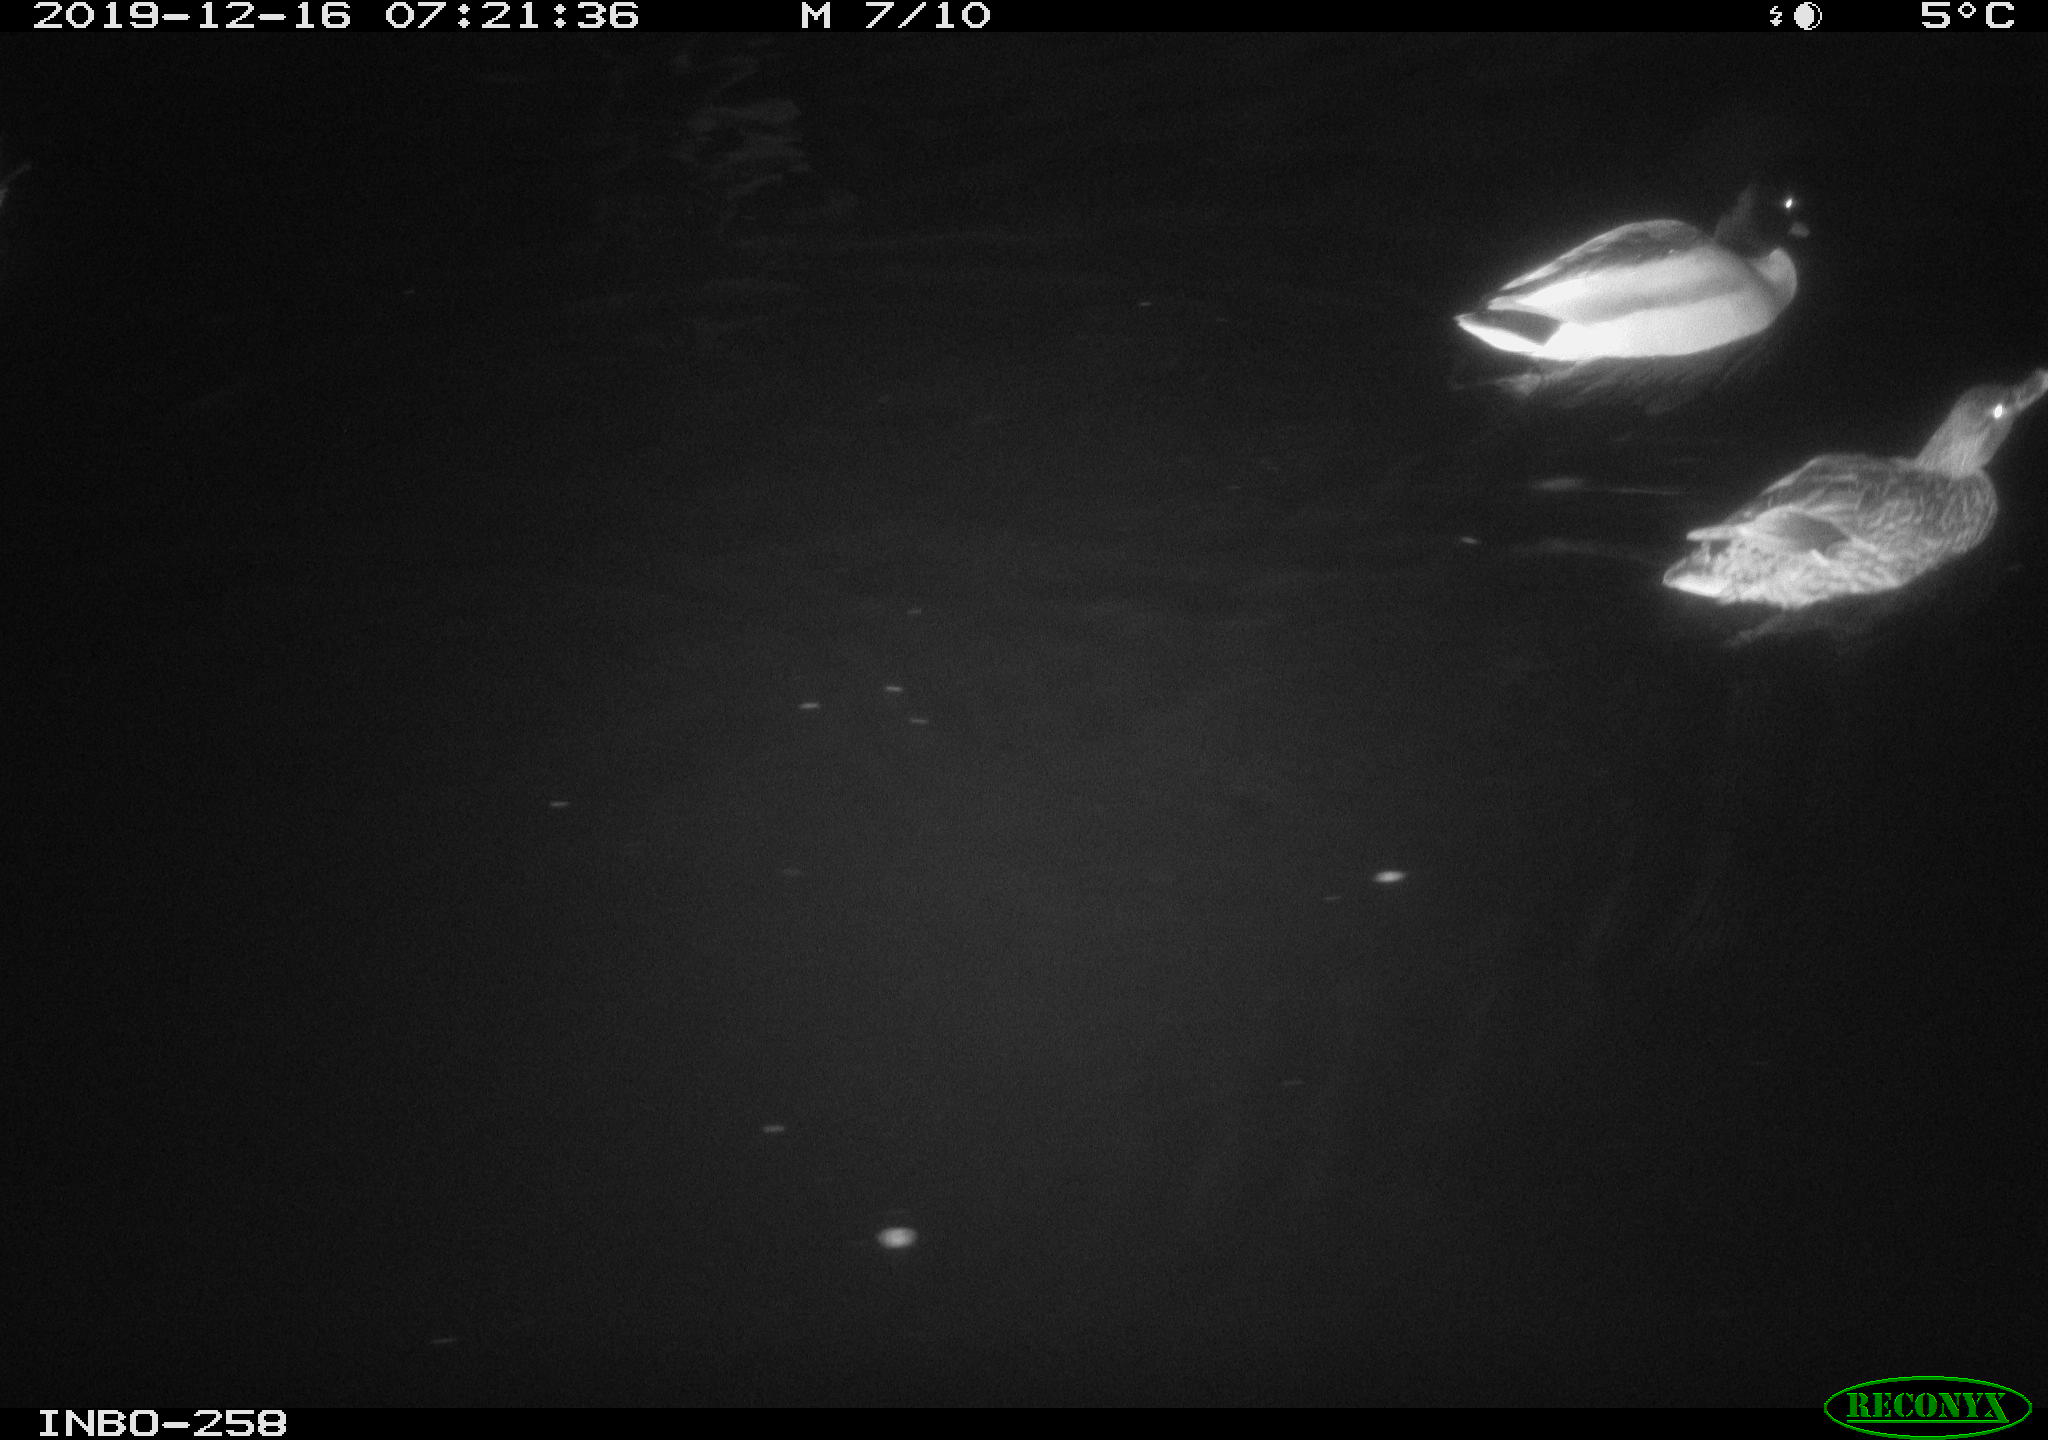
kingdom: Animalia
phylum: Chordata
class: Aves
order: Anseriformes
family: Anatidae
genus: Anas
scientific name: Anas platyrhynchos
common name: Mallard
